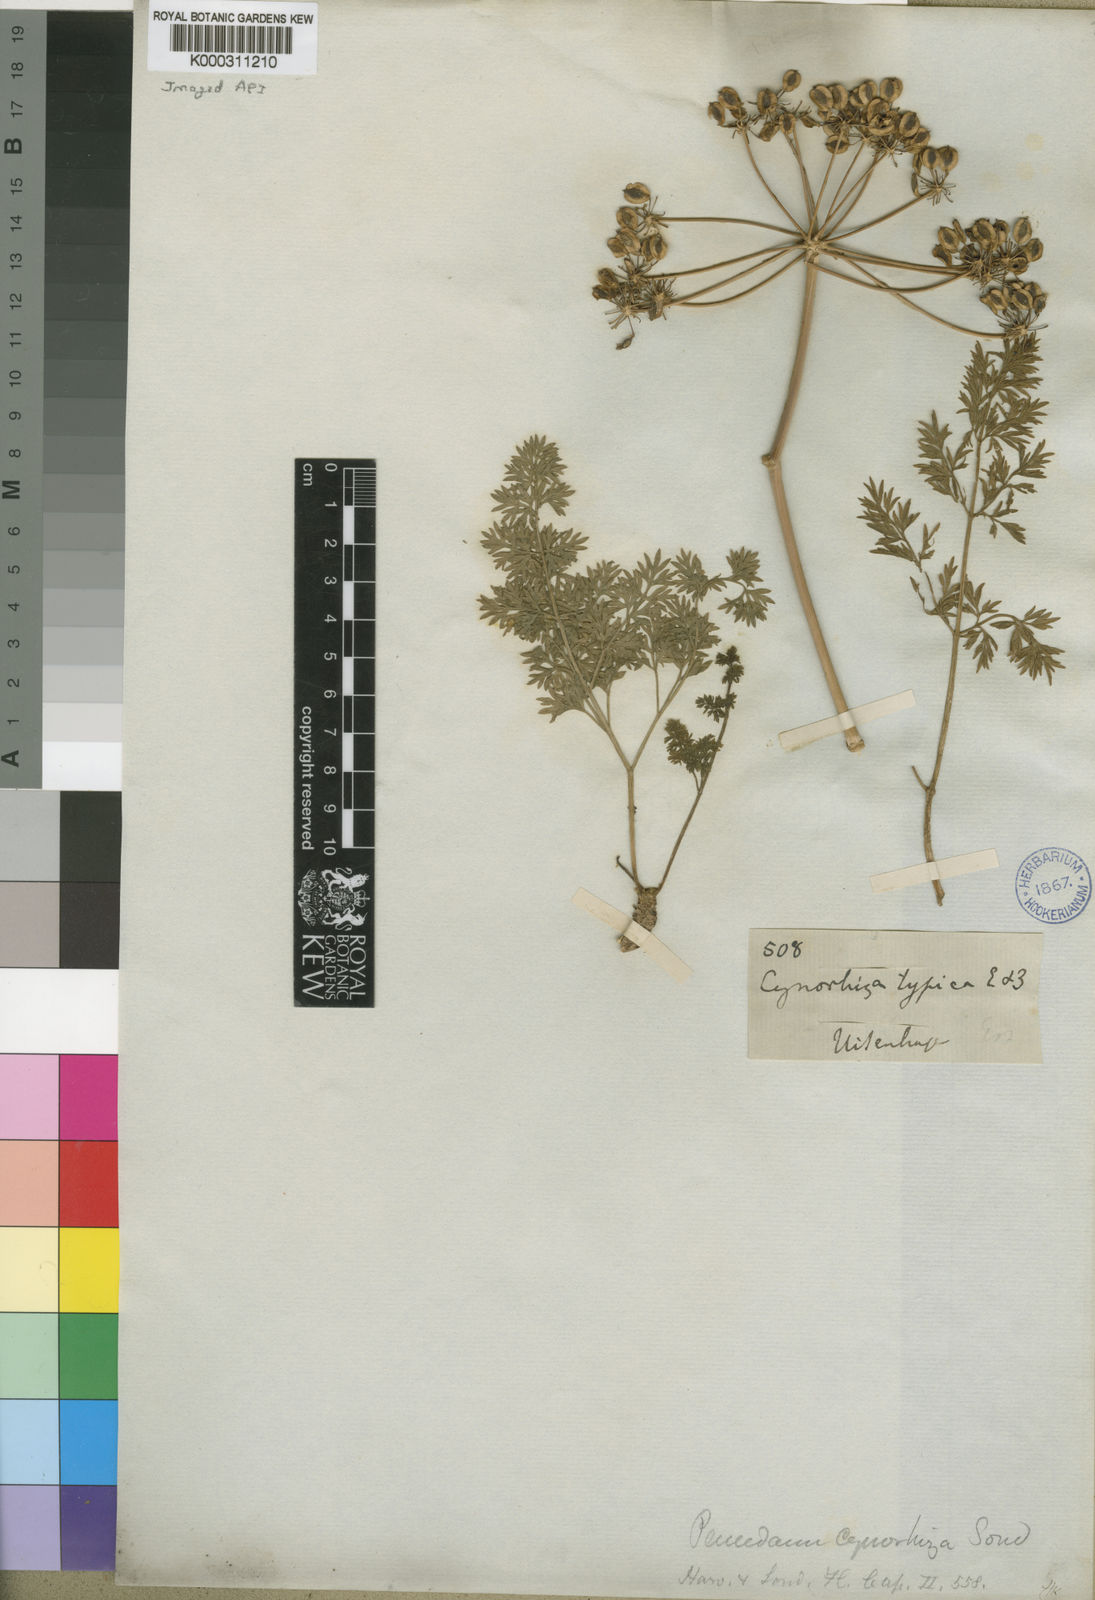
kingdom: Plantae
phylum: Tracheophyta
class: Magnoliopsida
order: Apiales
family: Apiaceae
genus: Cynorhiza
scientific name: Cynorhiza typica
